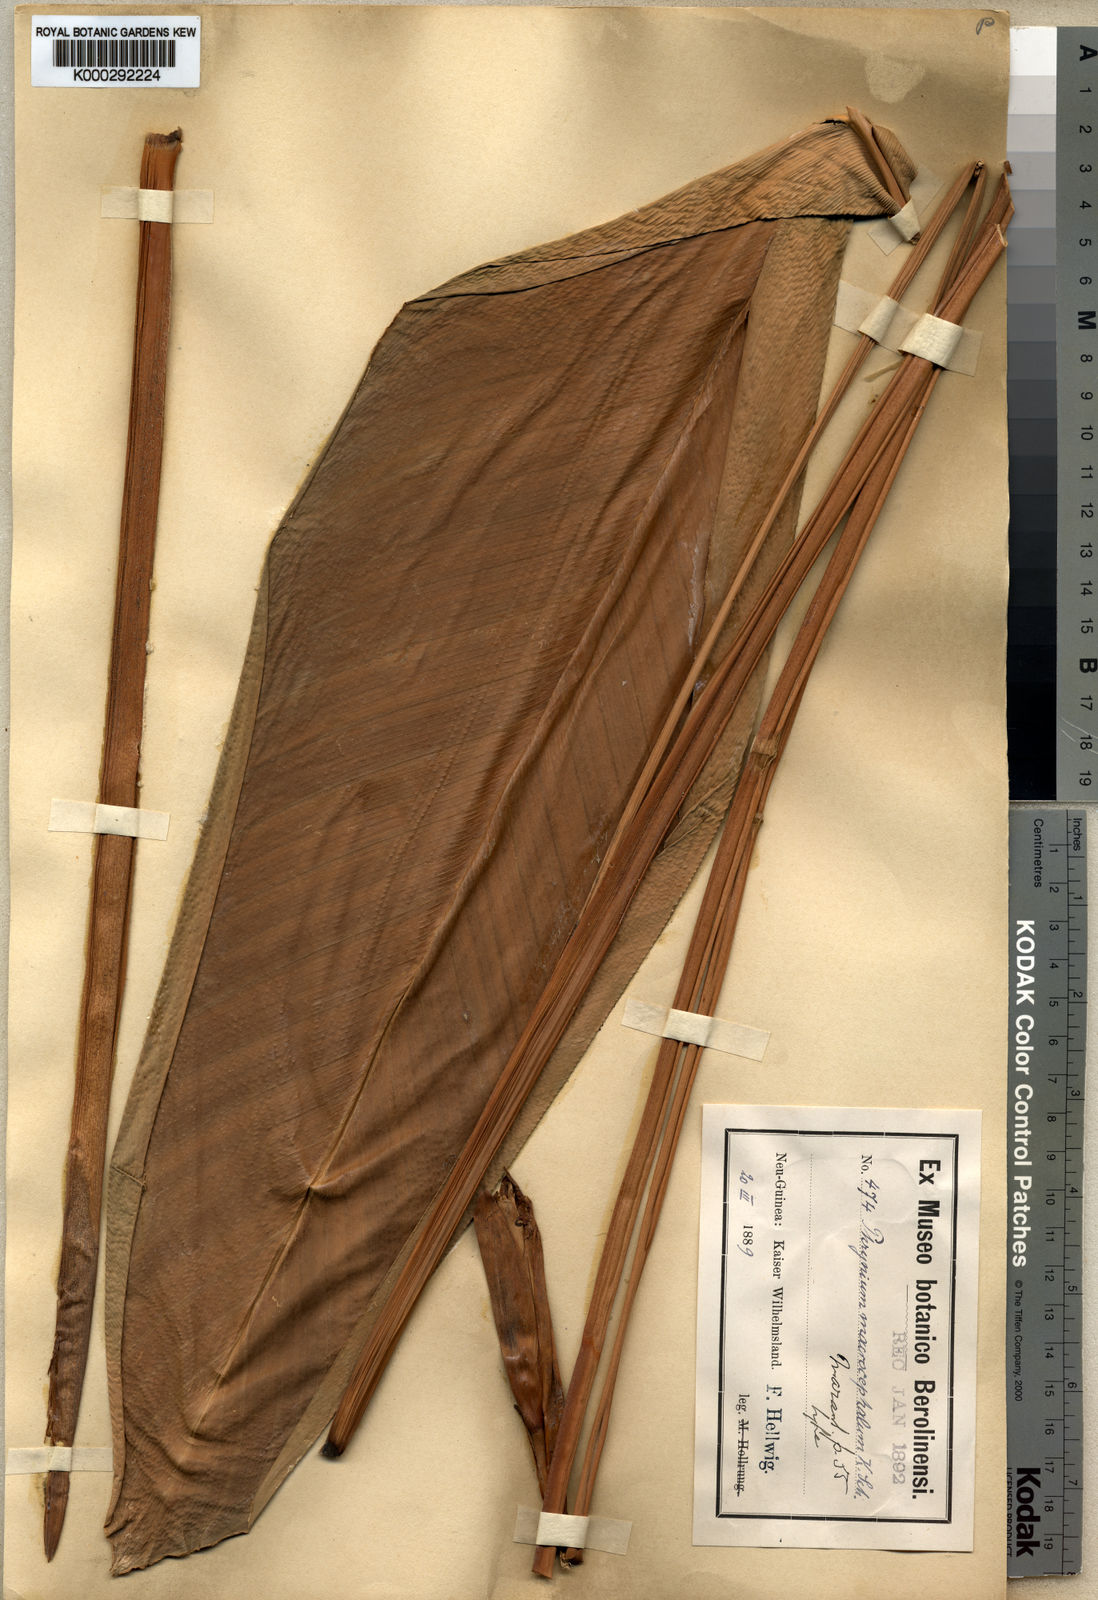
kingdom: Plantae
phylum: Tracheophyta
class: Liliopsida
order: Zingiberales
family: Marantaceae
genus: Phrynium
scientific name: Phrynium macrocephalum
